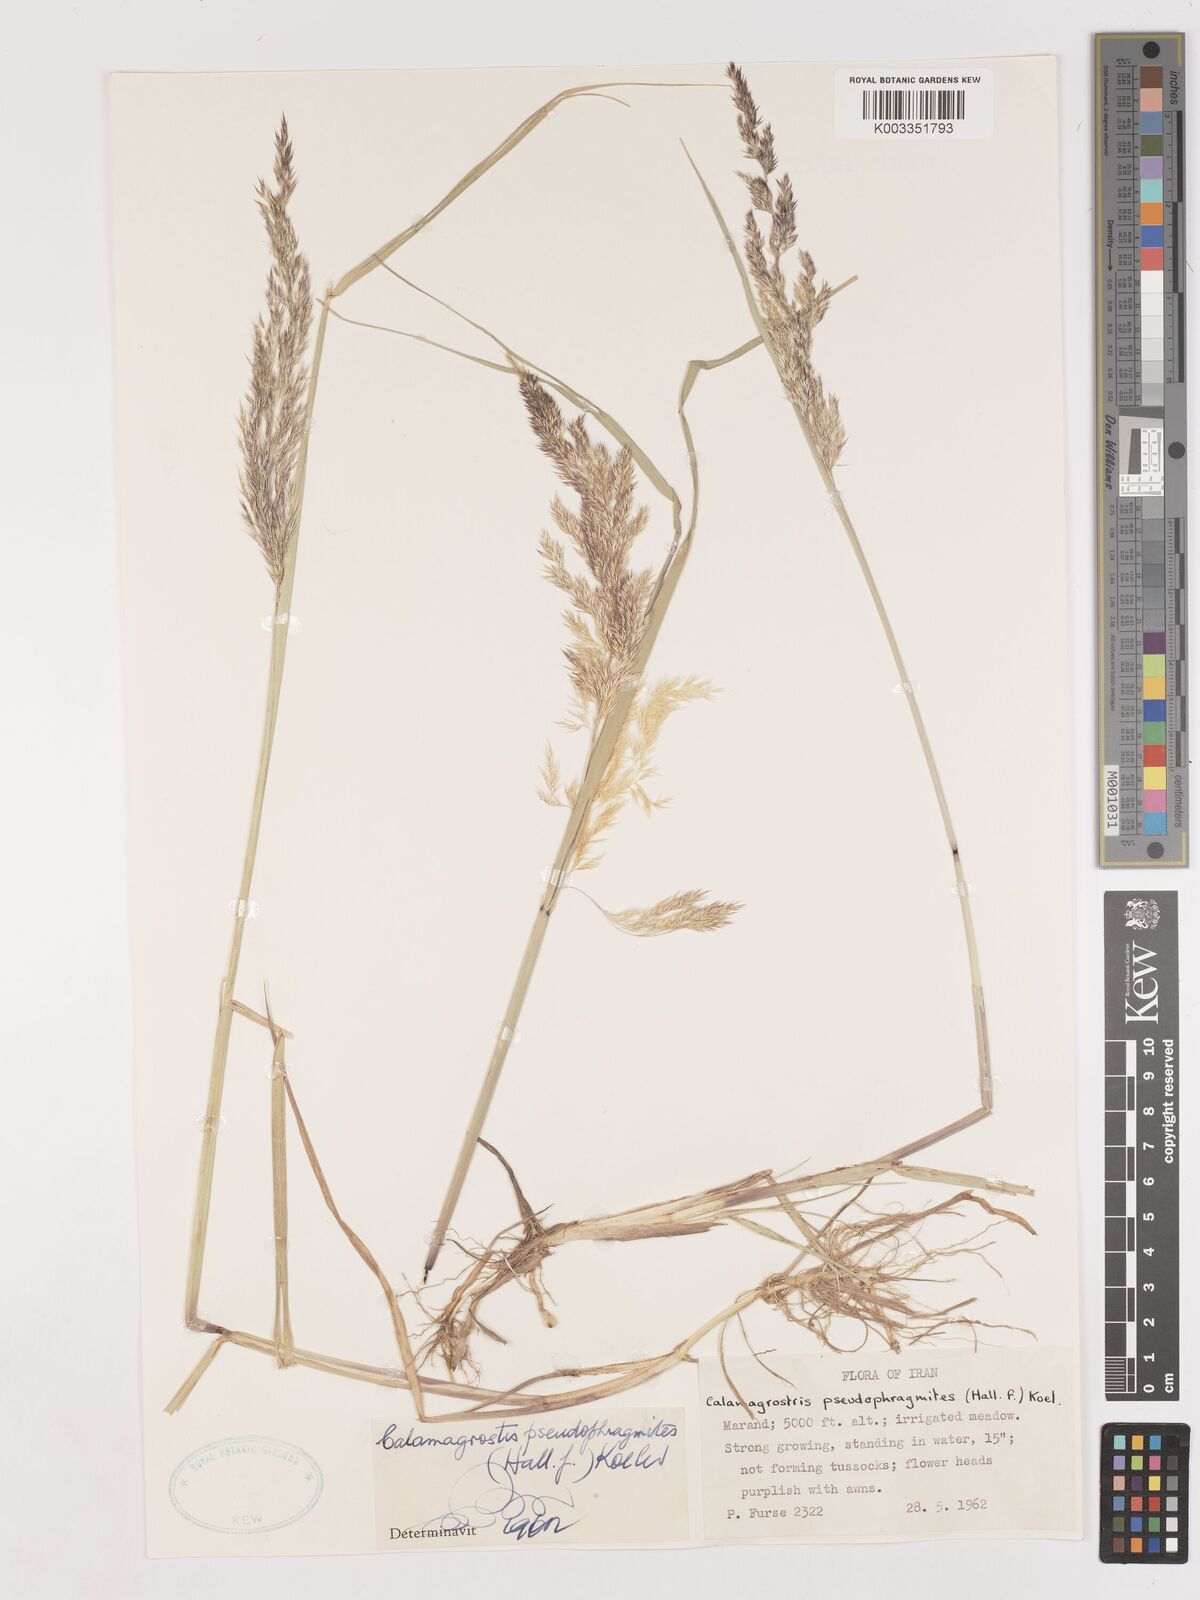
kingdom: Plantae
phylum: Tracheophyta
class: Liliopsida
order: Poales
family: Poaceae
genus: Calamagrostis
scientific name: Calamagrostis pseudophragmites
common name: Coastal small-reed
